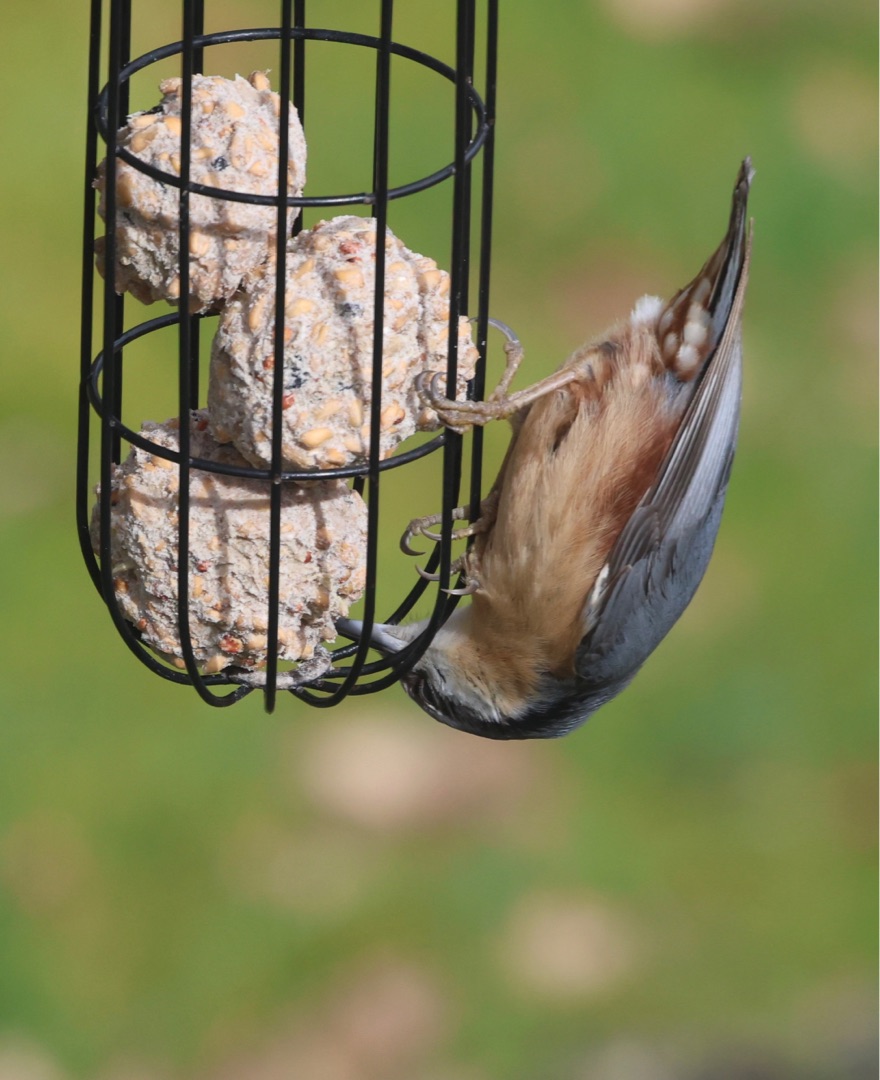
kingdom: Animalia
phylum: Chordata
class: Aves
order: Passeriformes
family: Sittidae
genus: Sitta
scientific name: Sitta europaea
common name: Spætmejse
